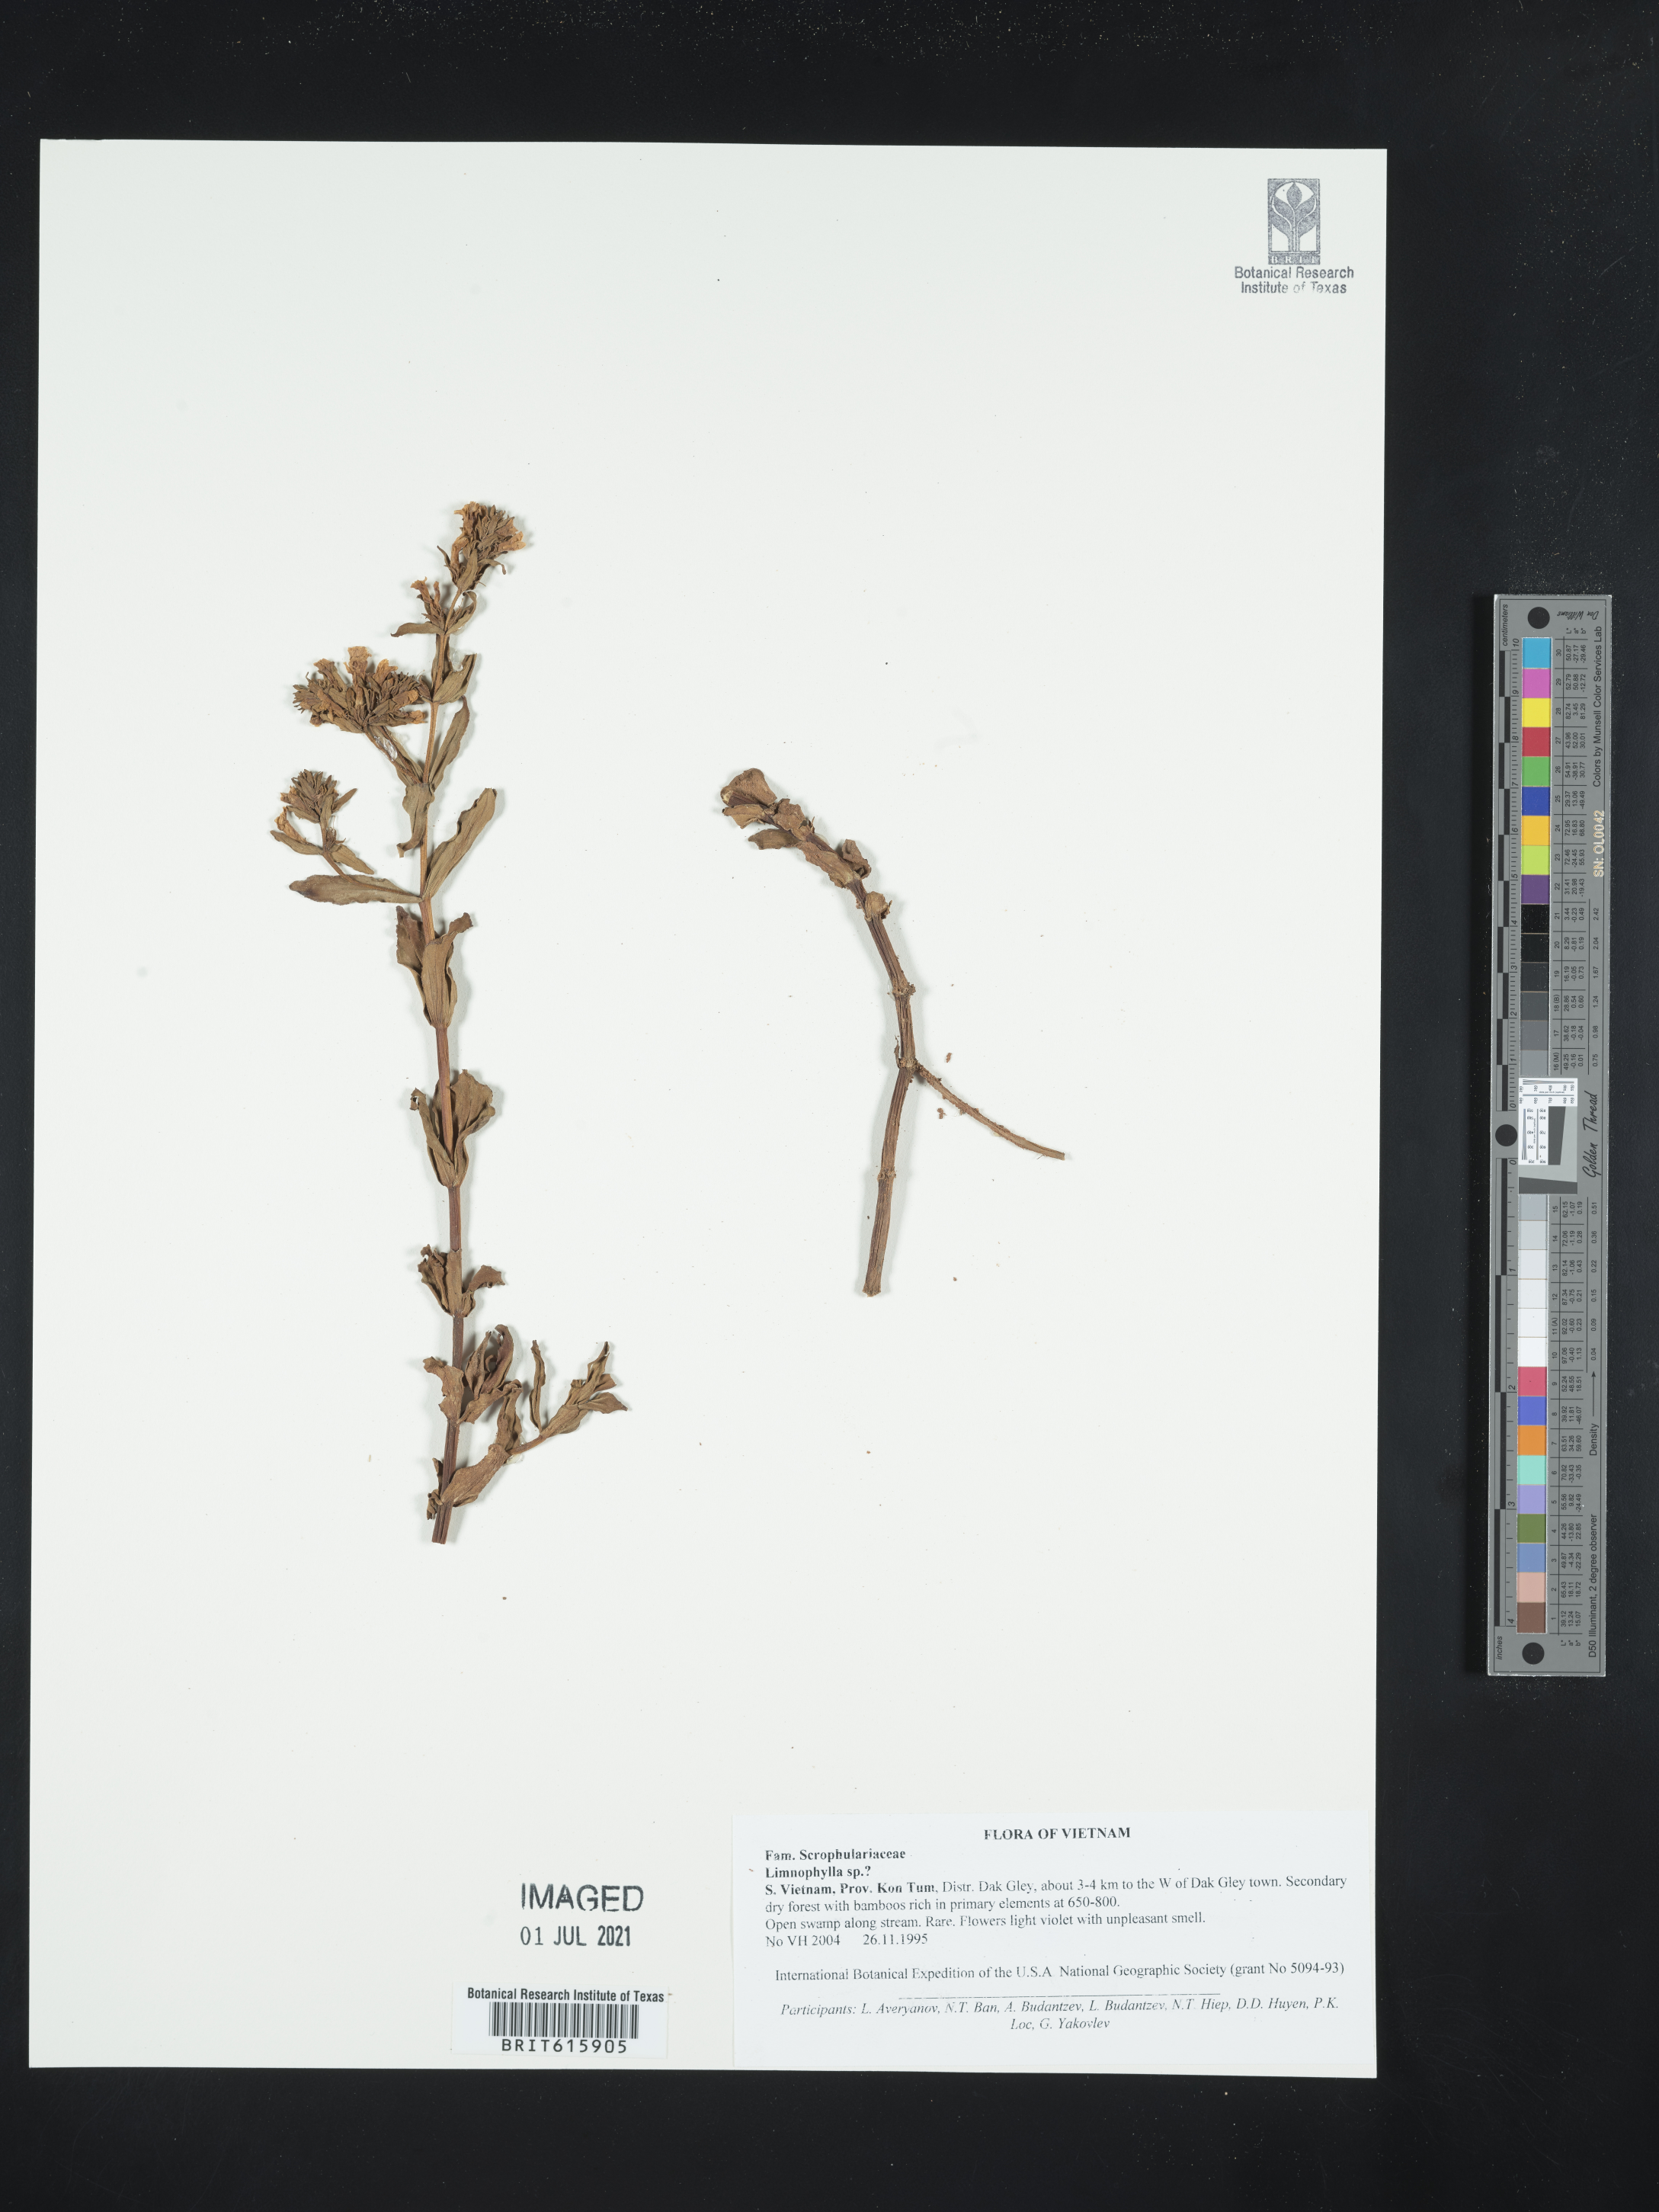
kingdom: Plantae
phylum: Tracheophyta
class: Magnoliopsida
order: Lamiales
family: Plantaginaceae
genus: Limnophila
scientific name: Limnophila aromatica
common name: Finger grass
